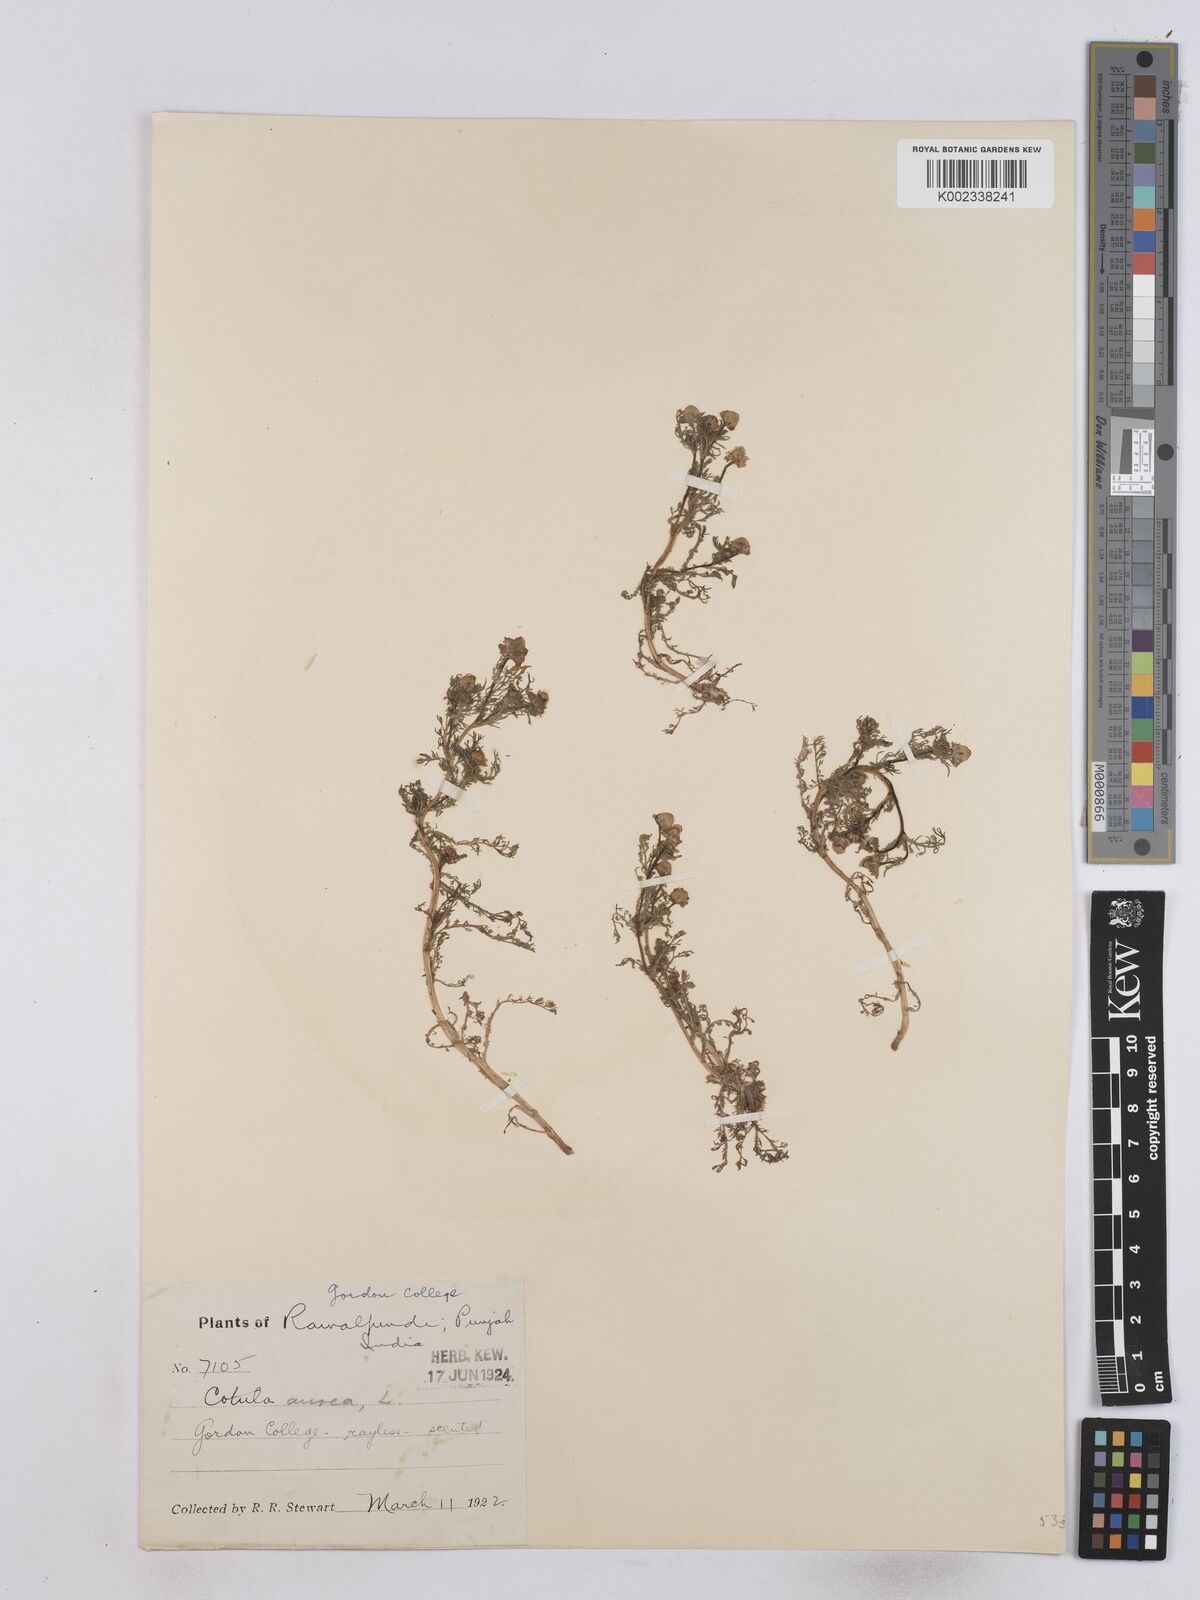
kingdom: Plantae
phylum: Tracheophyta
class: Magnoliopsida
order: Asterales
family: Asteraceae
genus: Matricaria
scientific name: Matricaria aurea
